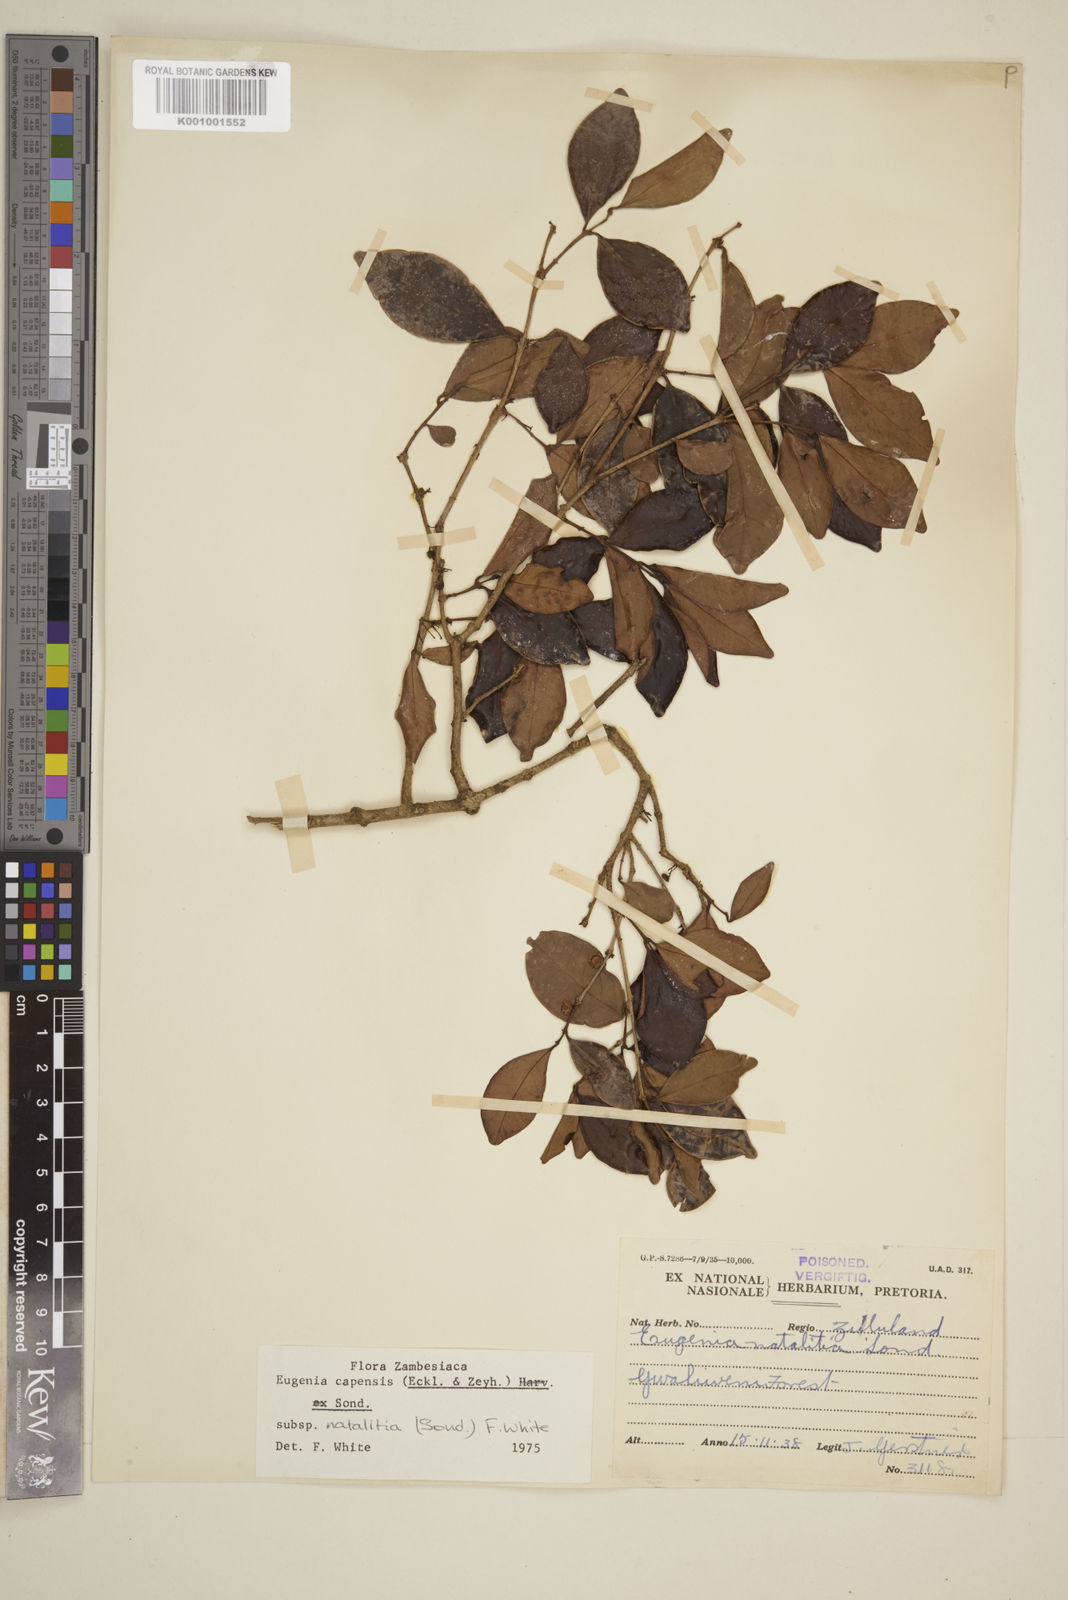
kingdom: Plantae
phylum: Tracheophyta
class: Magnoliopsida
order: Myrtales
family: Myrtaceae
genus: Eugenia
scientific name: Eugenia natalitia
